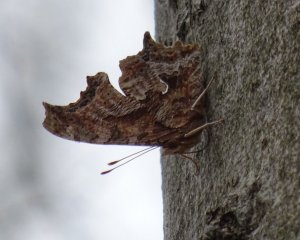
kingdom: Animalia
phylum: Arthropoda
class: Insecta
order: Lepidoptera
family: Nymphalidae
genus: Polygonia
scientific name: Polygonia comma
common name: Eastern Comma
